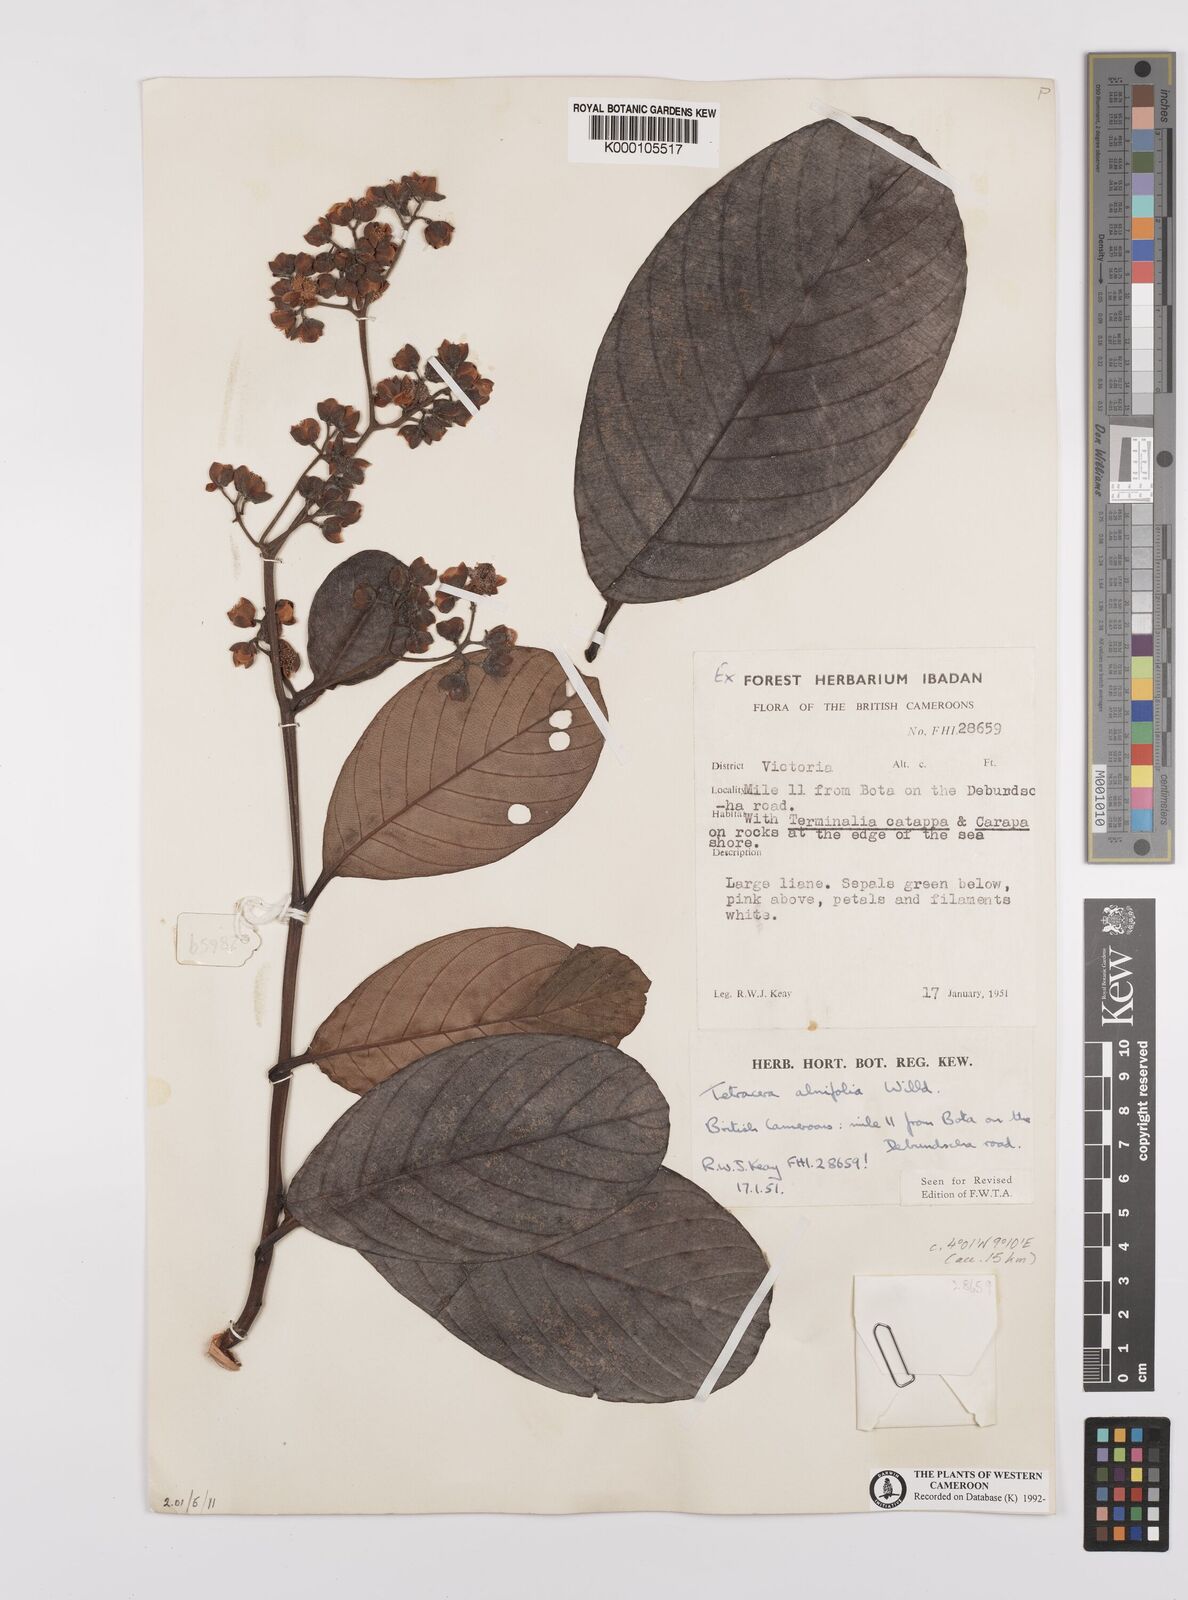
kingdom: Plantae
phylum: Tracheophyta
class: Magnoliopsida
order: Dilleniales
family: Dilleniaceae
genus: Tetracera
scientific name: Tetracera alnifolia
